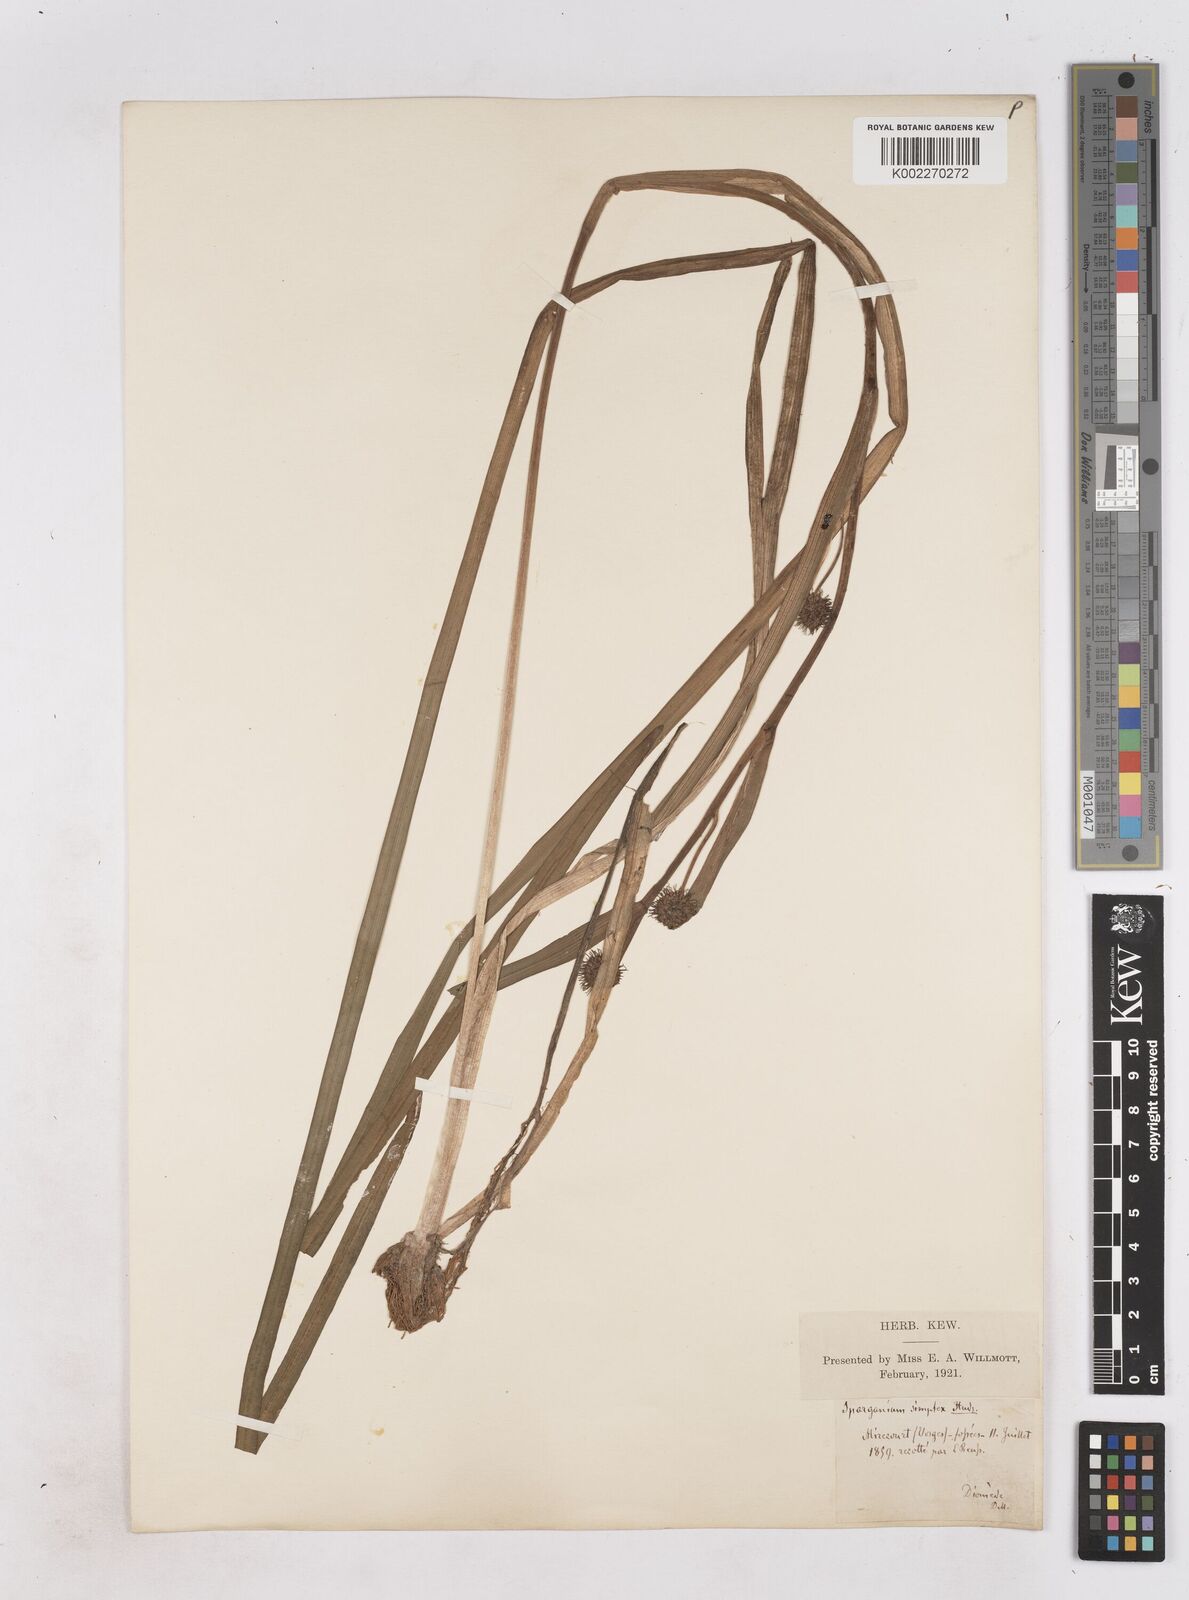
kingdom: Plantae
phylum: Tracheophyta
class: Liliopsida
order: Poales
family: Typhaceae
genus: Sparganium
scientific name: Sparganium emersum
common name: Unbranched bur-reed
